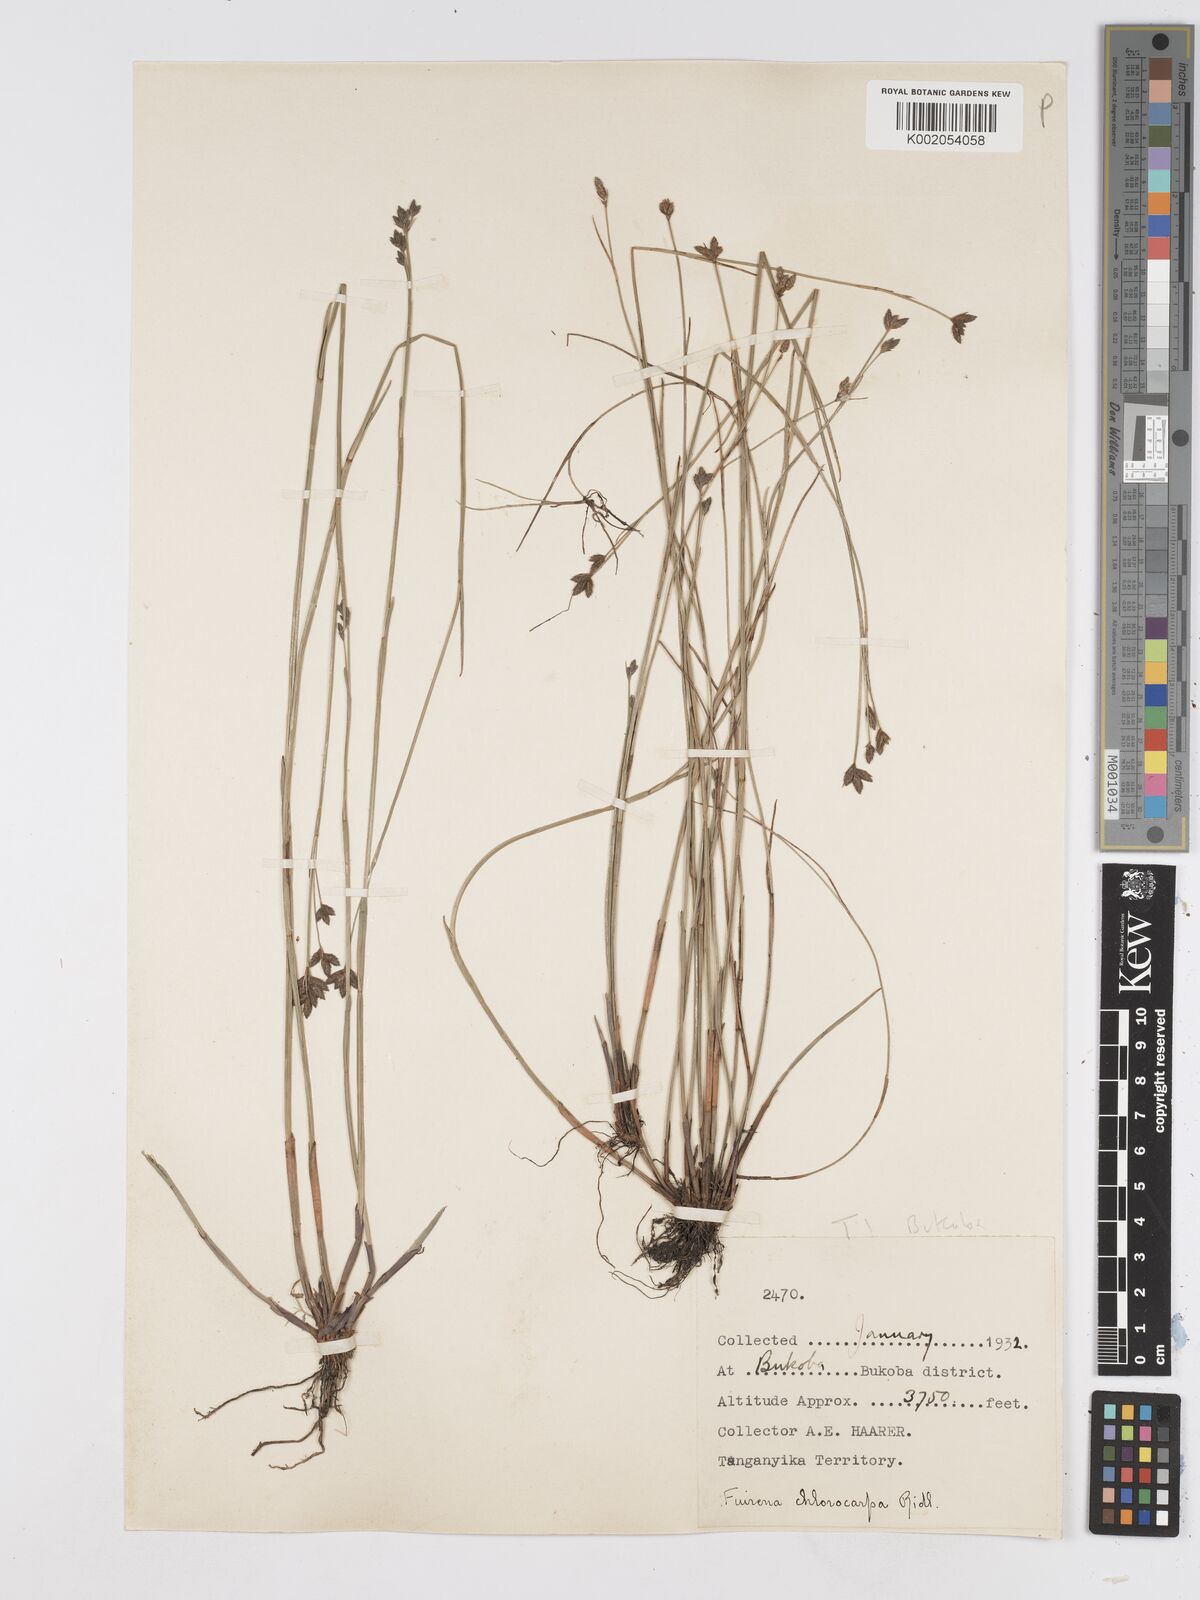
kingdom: Plantae
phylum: Tracheophyta
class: Liliopsida
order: Poales
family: Cyperaceae
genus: Fuirena
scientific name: Fuirena stricta
